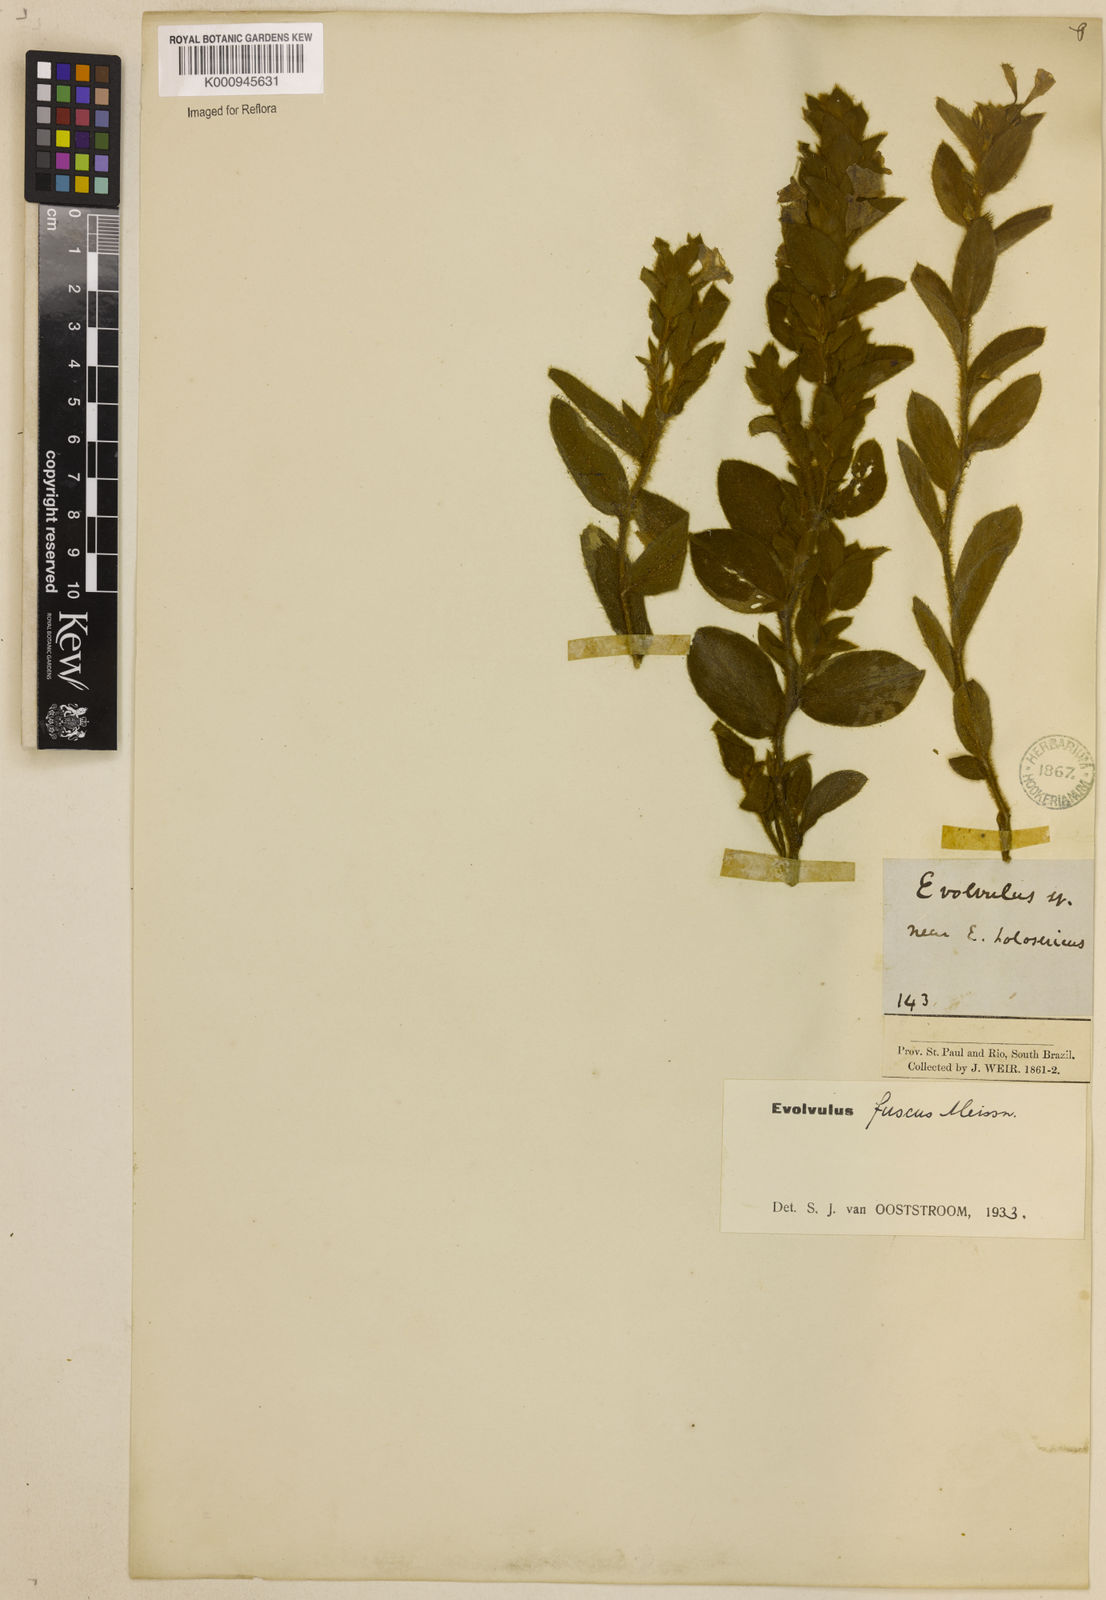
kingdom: Plantae
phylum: Tracheophyta
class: Magnoliopsida
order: Solanales
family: Convolvulaceae
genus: Evolvulus
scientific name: Evolvulus fuscus
